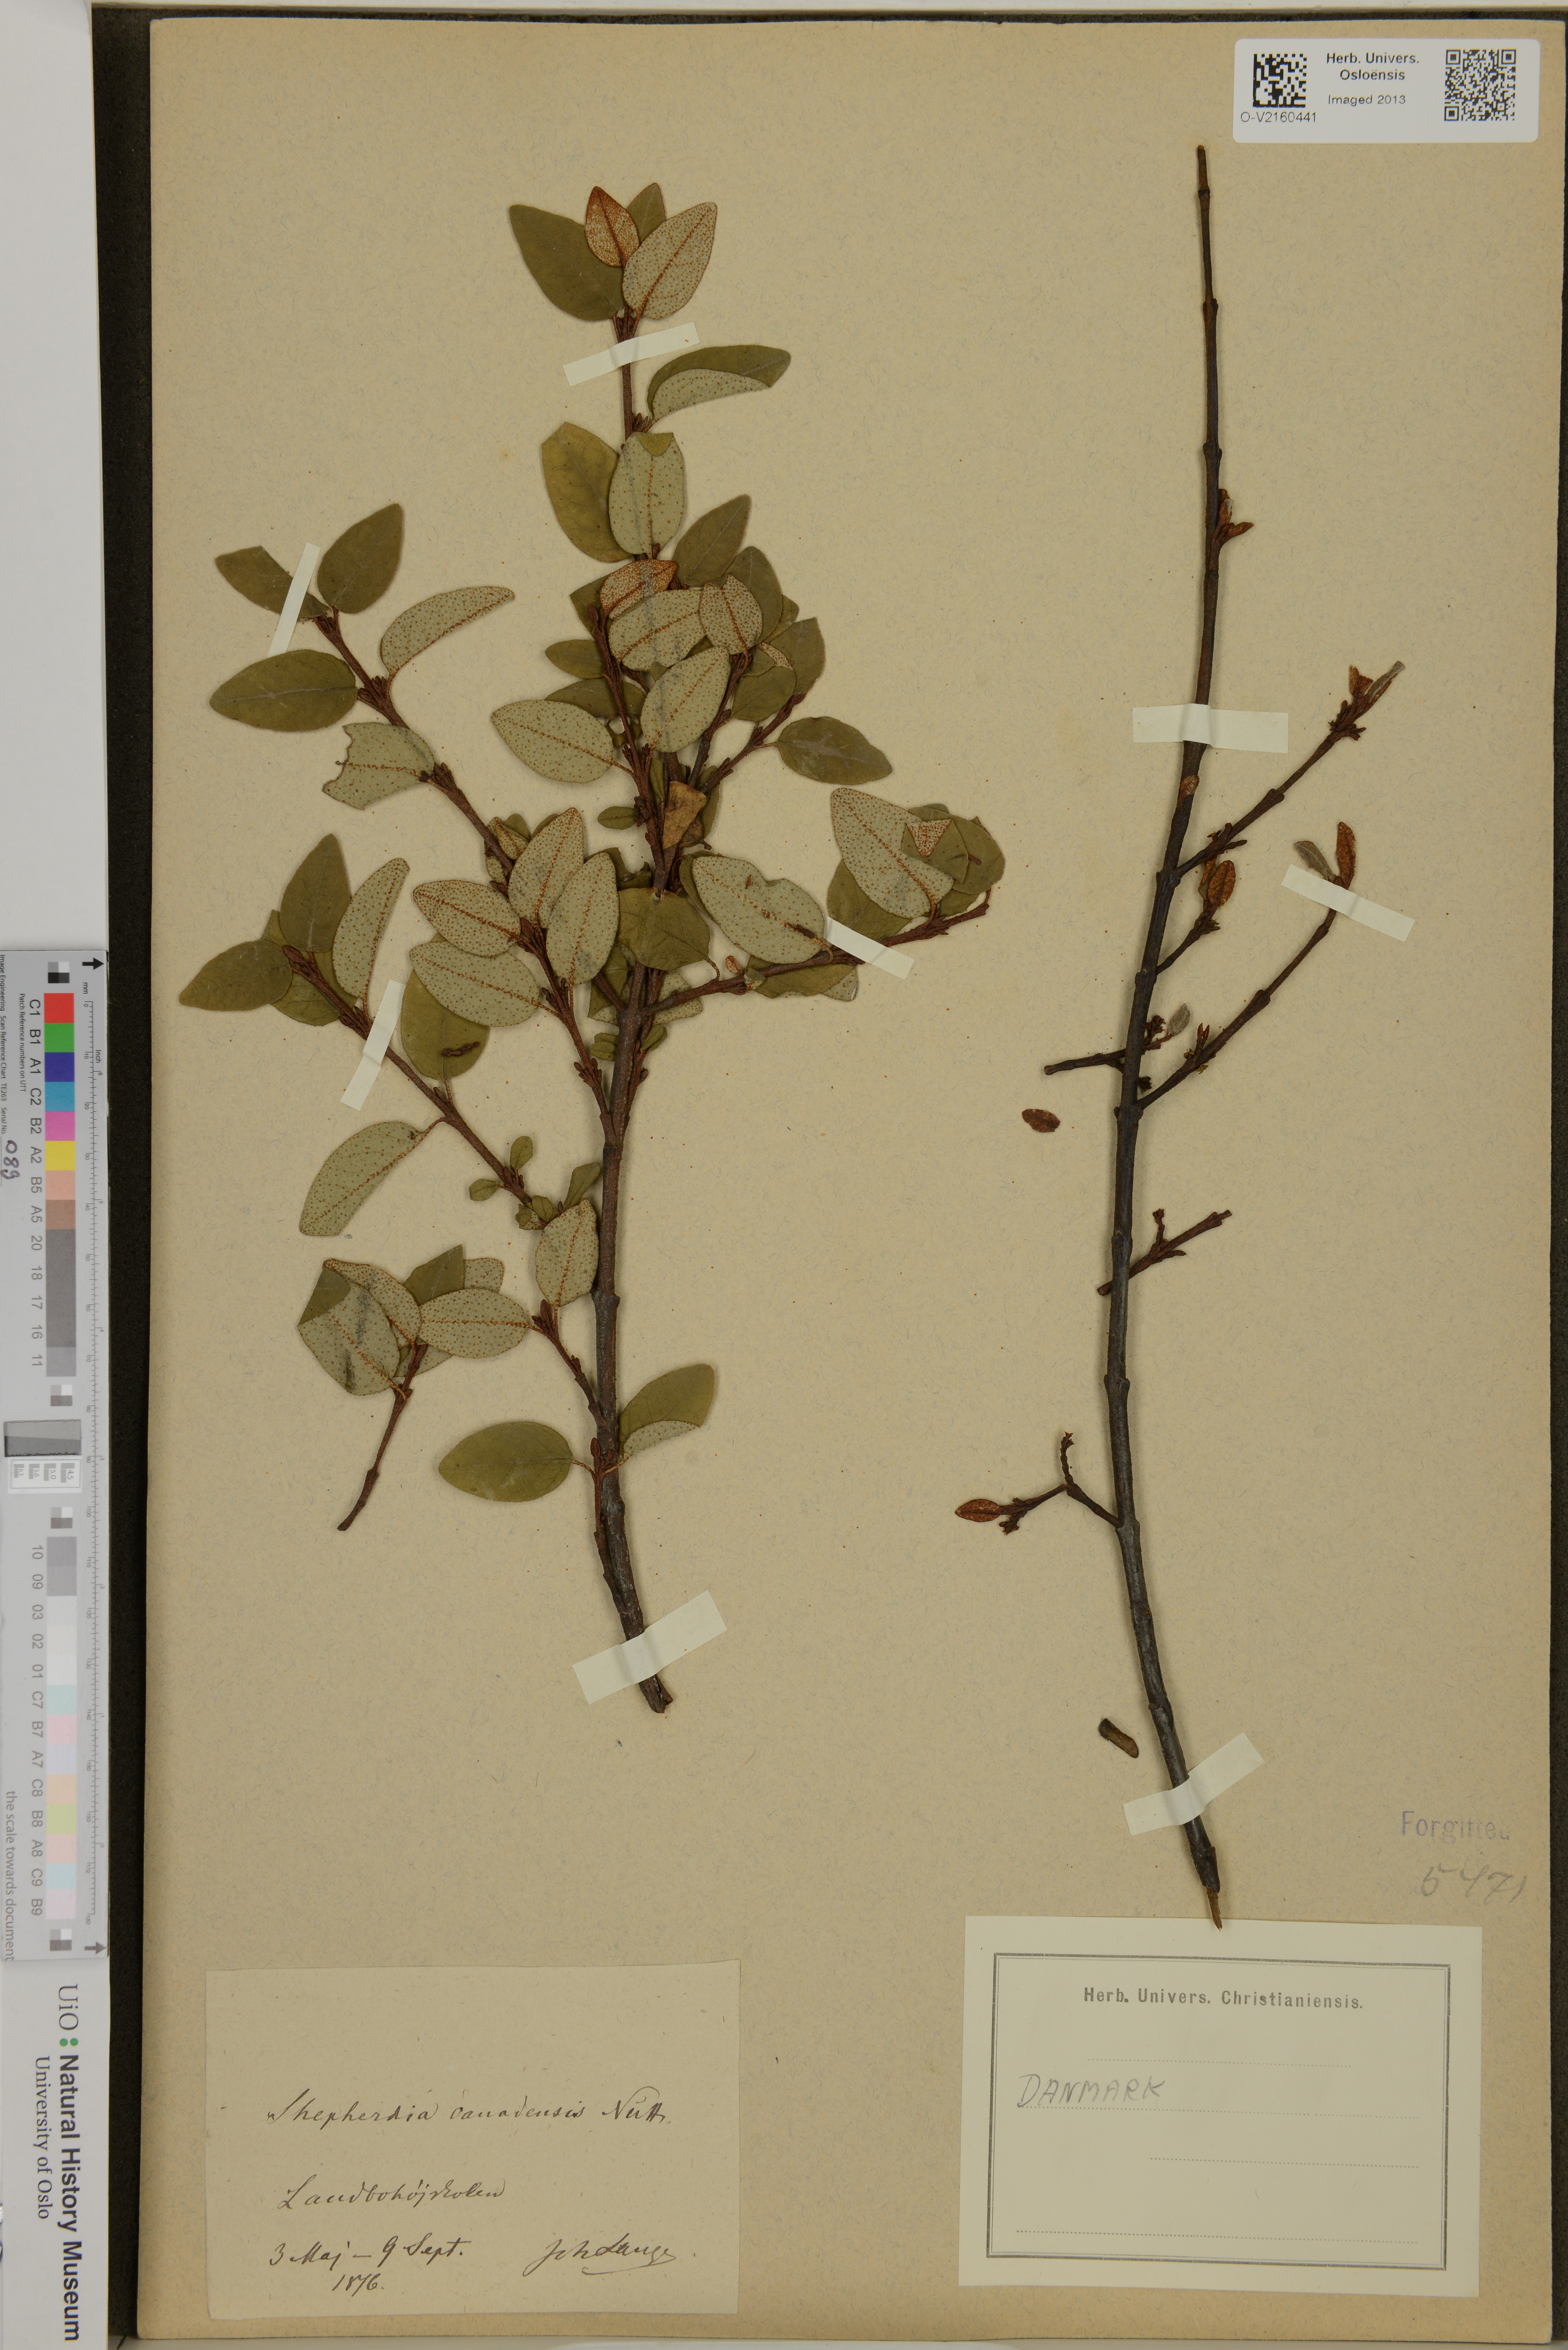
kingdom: Plantae
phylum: Tracheophyta
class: Magnoliopsida
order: Rosales
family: Elaeagnaceae
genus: Shepherdia
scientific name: Shepherdia canadensis
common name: Soapberry
